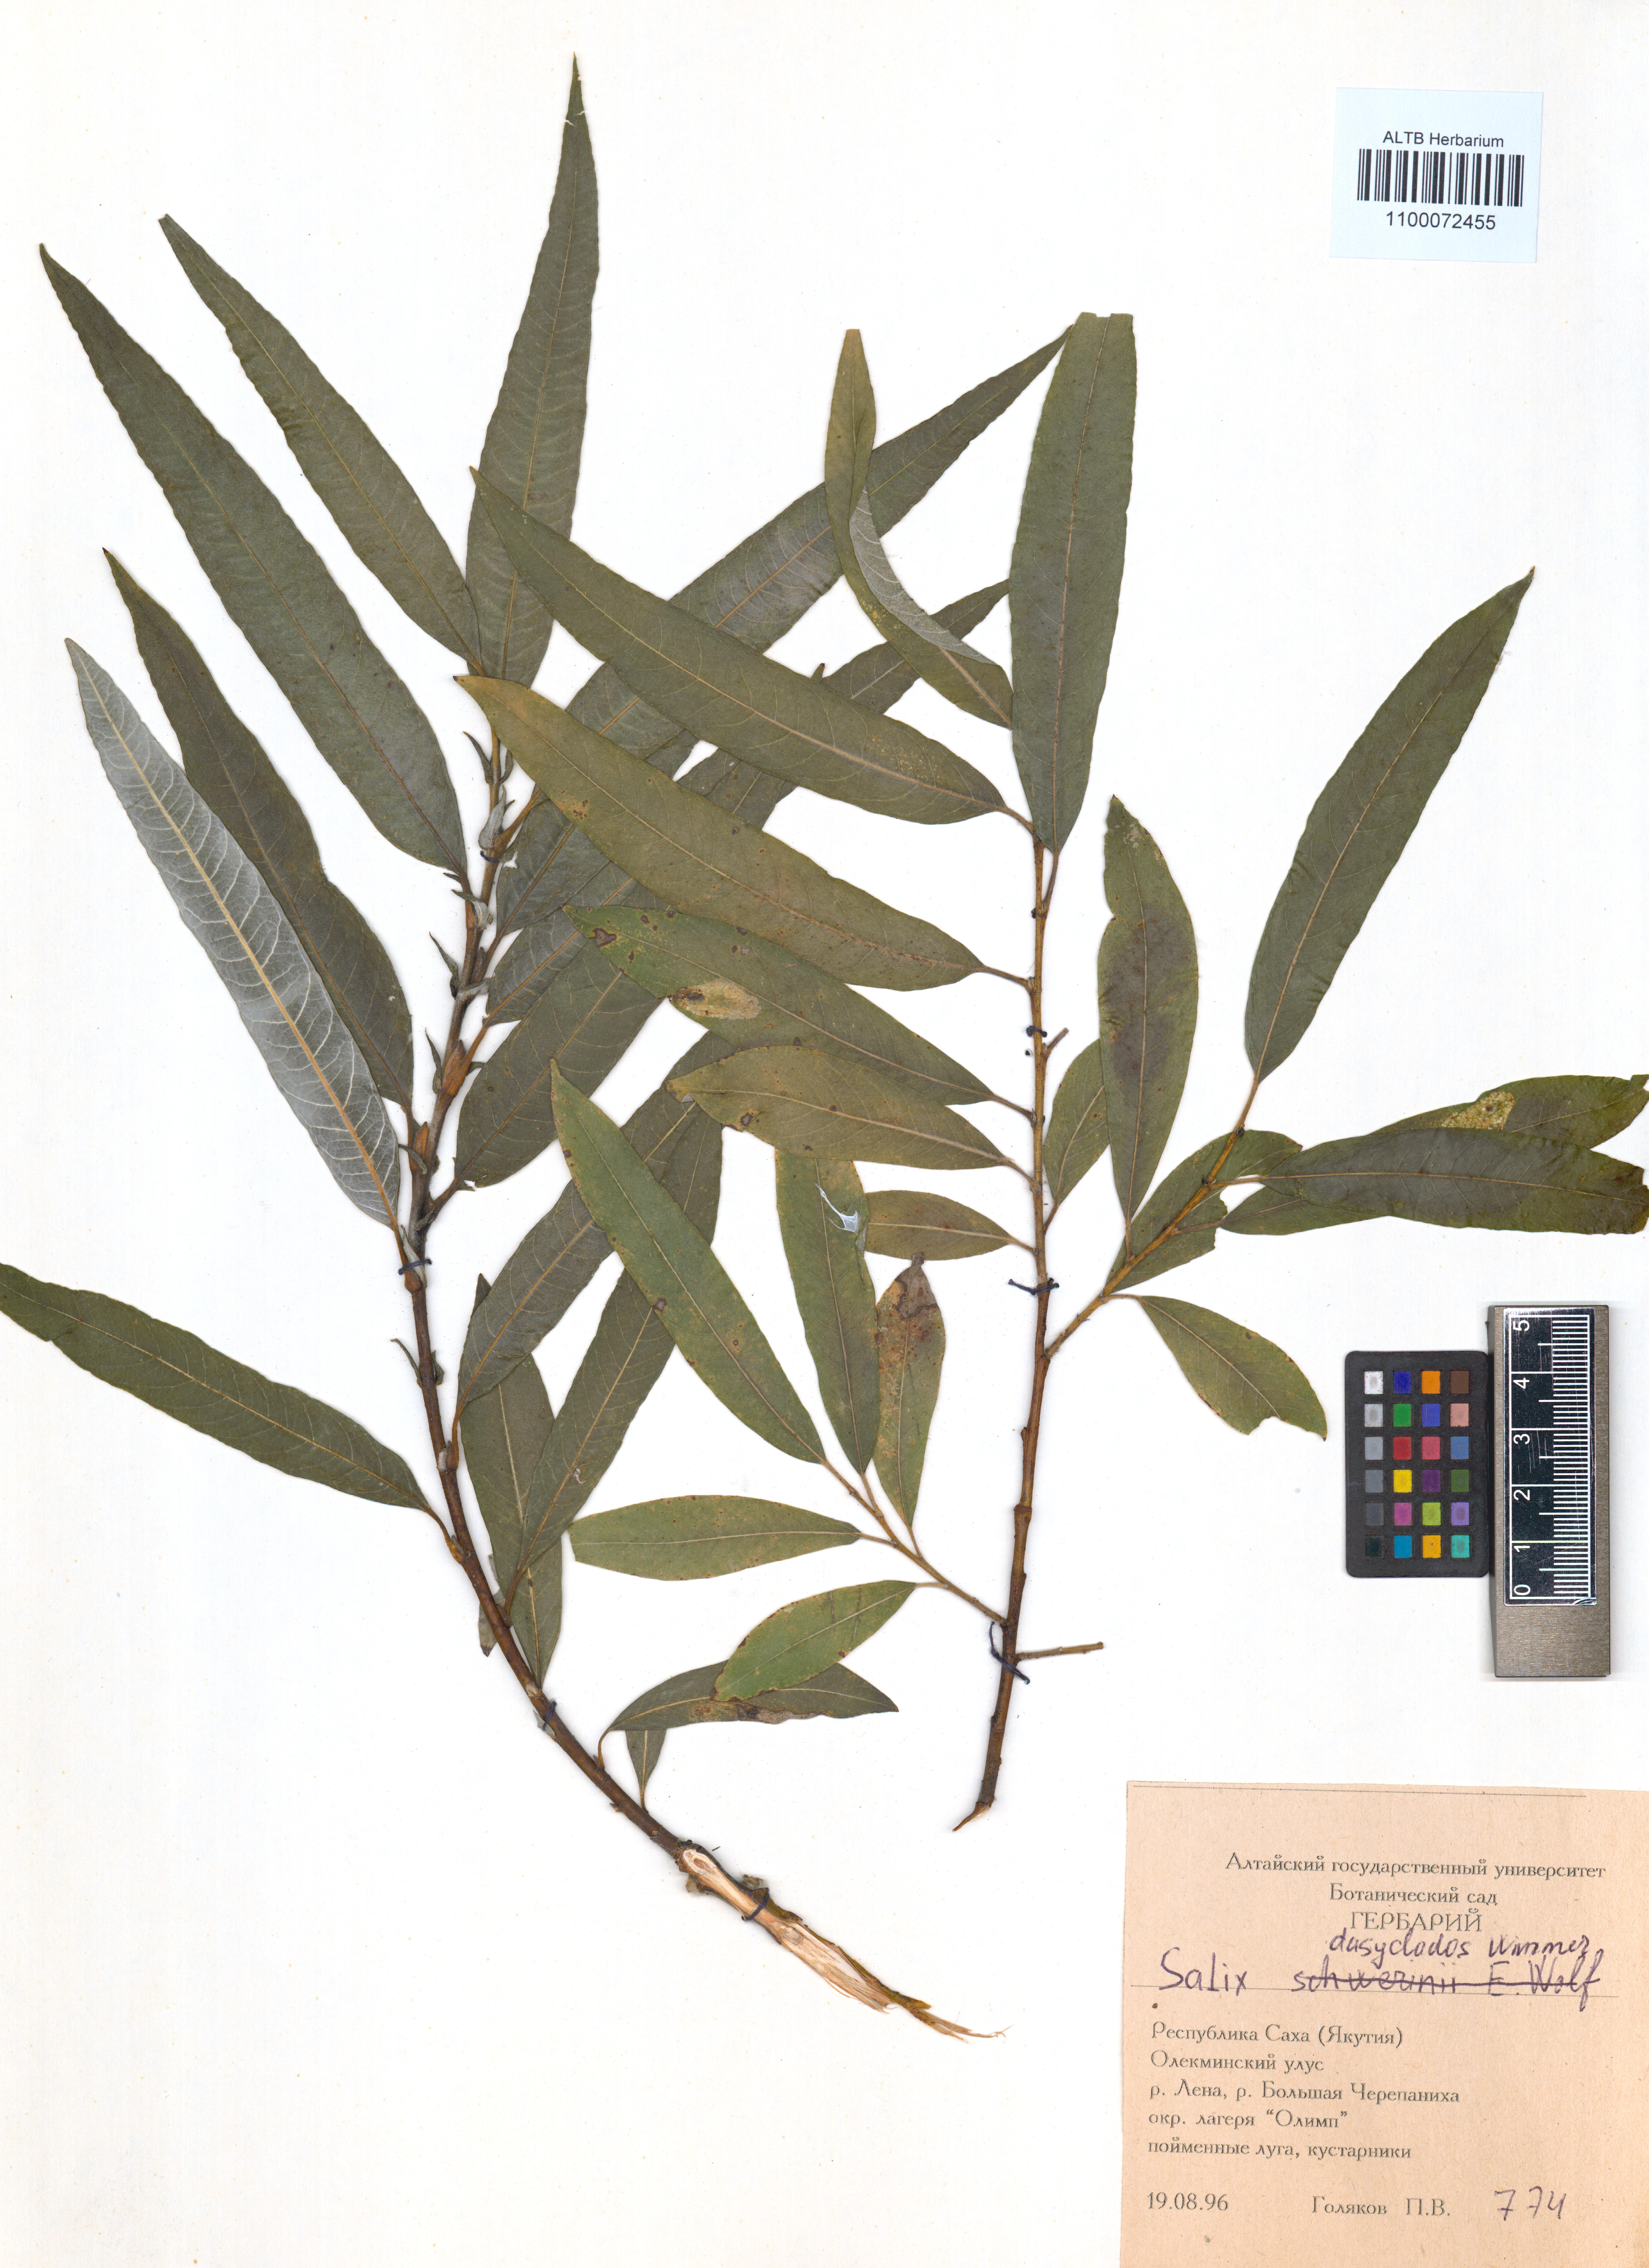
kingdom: Plantae
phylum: Tracheophyta
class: Magnoliopsida
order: Malpighiales
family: Salicaceae
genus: Salix
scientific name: Salix gmelinii
